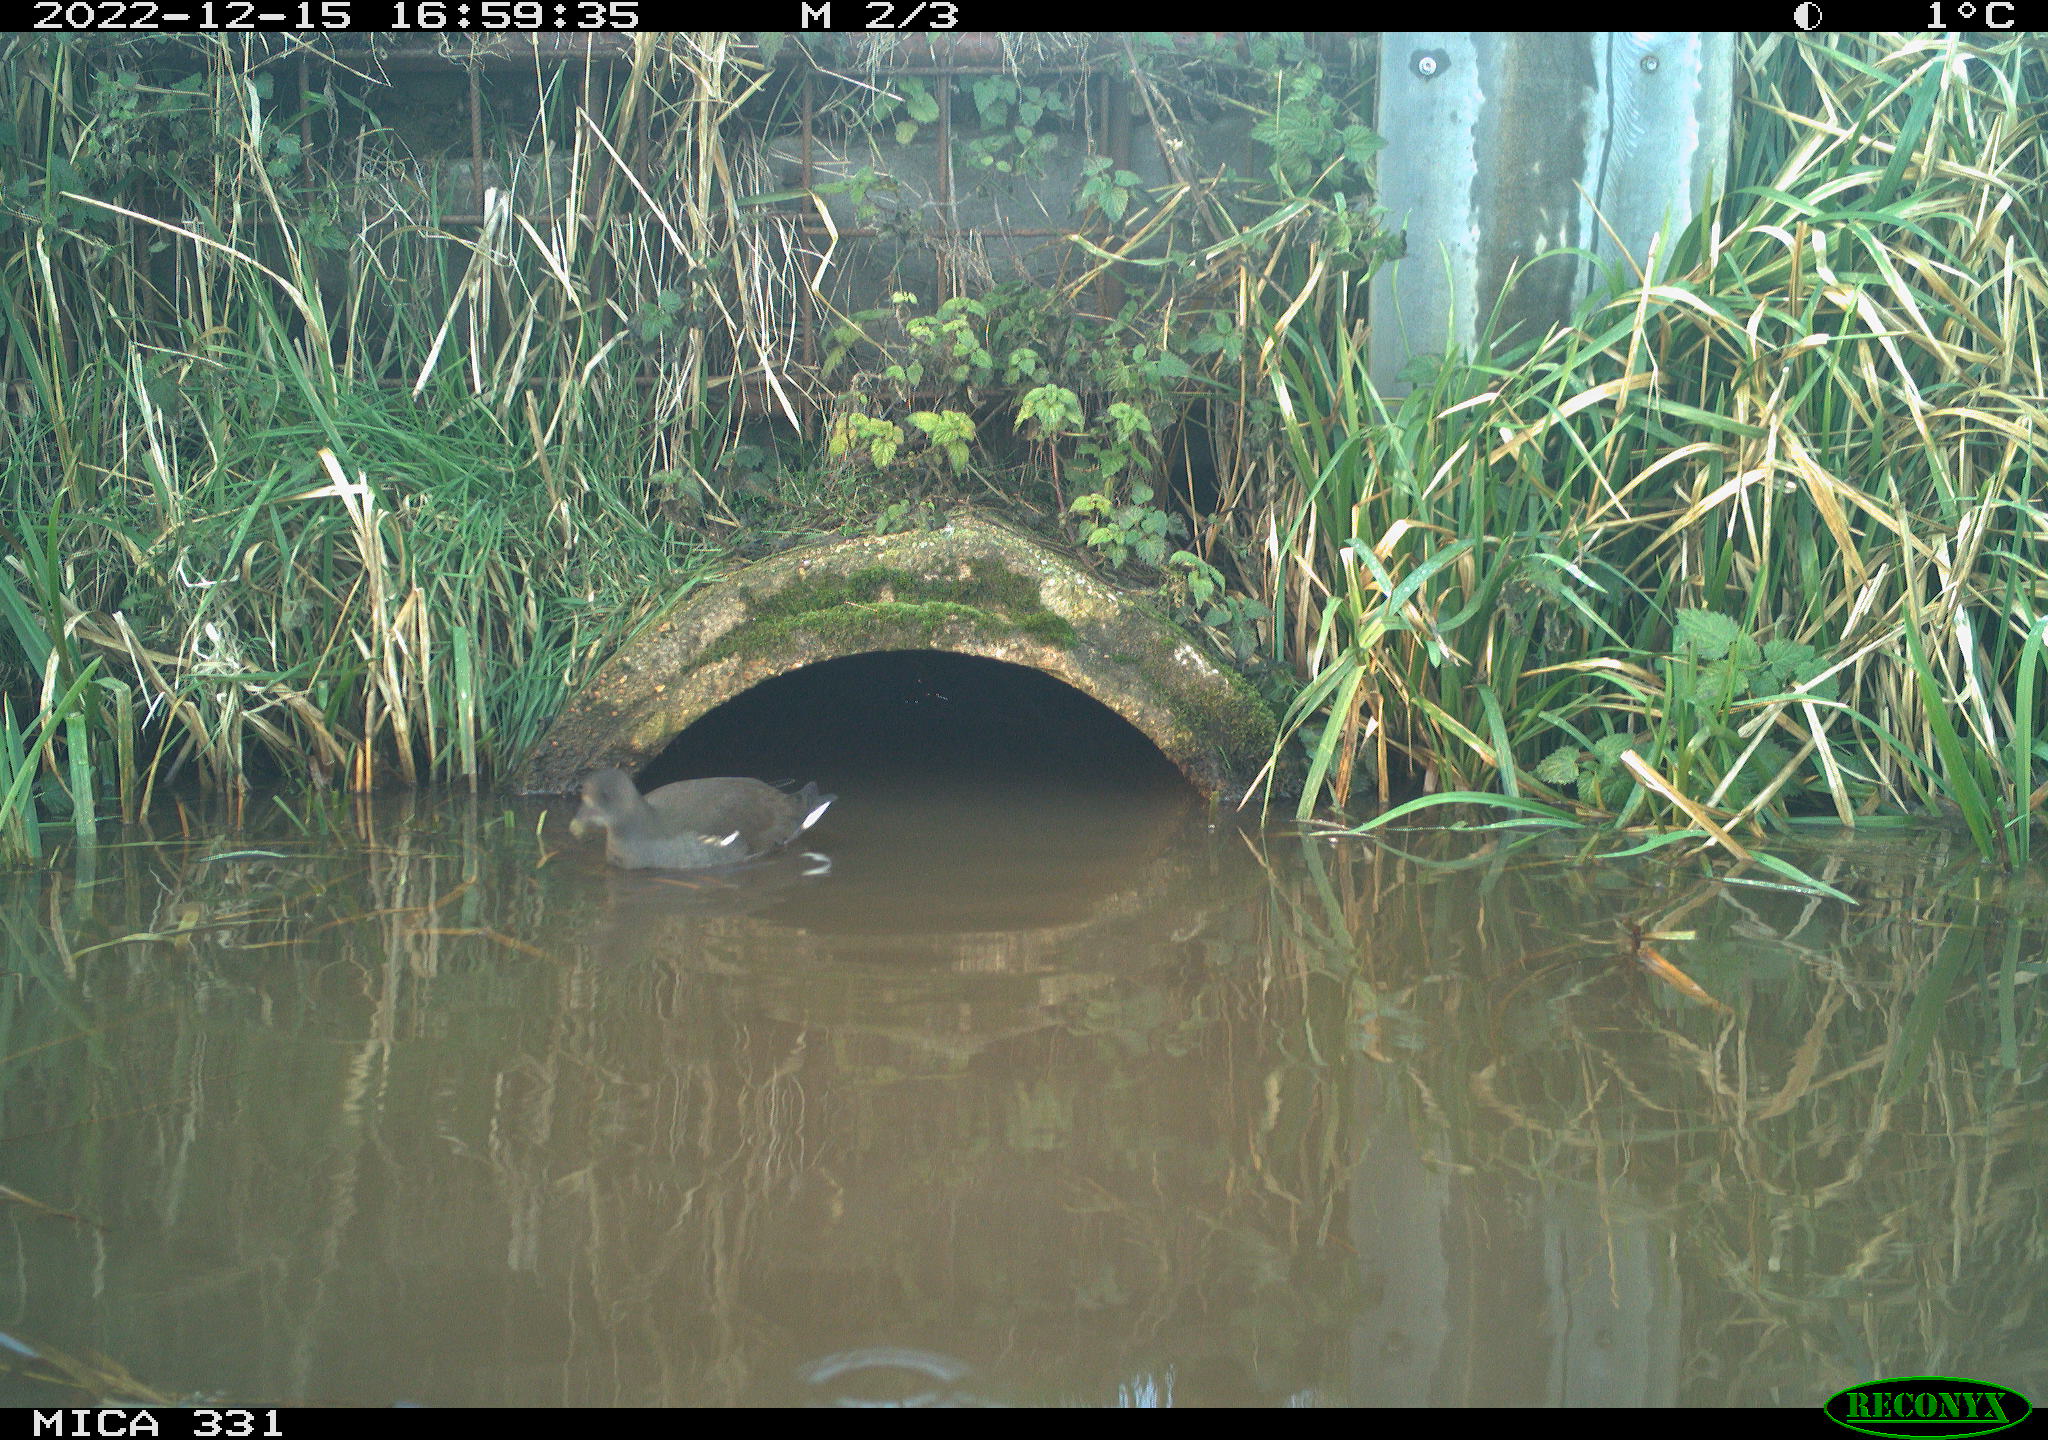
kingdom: Animalia
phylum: Chordata
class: Aves
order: Gruiformes
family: Rallidae
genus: Gallinula
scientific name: Gallinula chloropus
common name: Common moorhen
